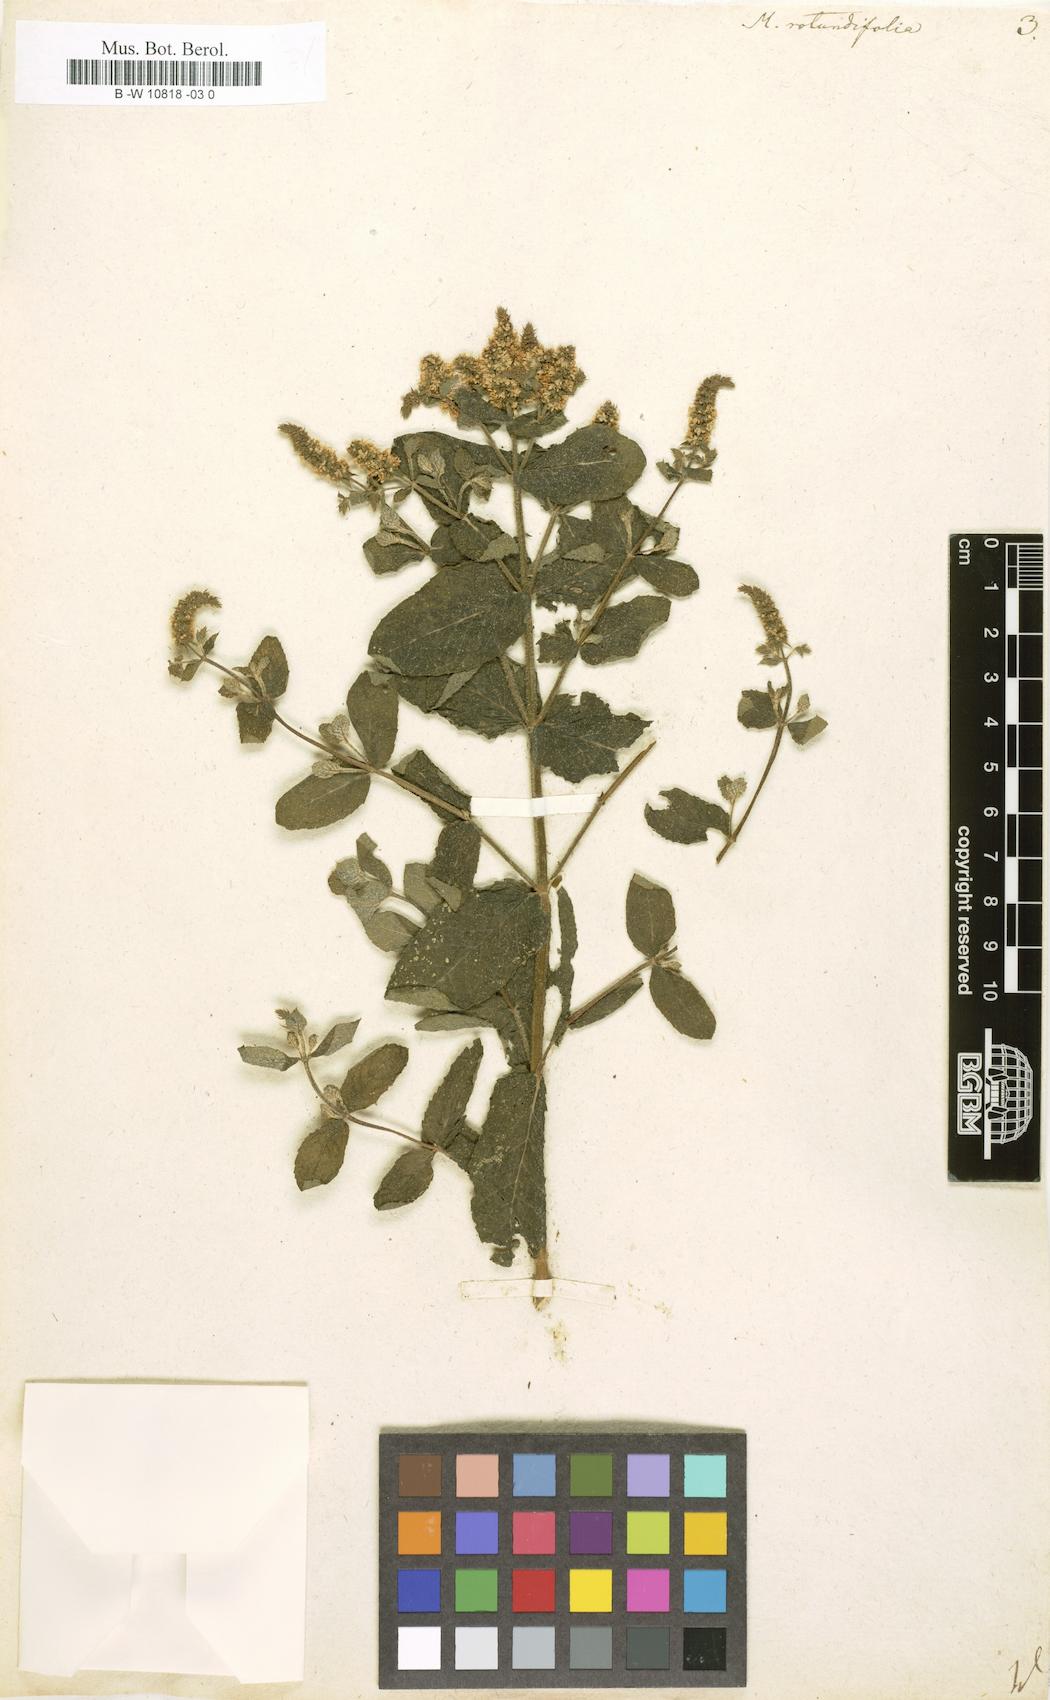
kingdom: Plantae
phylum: Tracheophyta
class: Magnoliopsida
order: Lamiales
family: Lamiaceae
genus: Mentha
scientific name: Mentha rotundifolia
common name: Bigleaf mint
